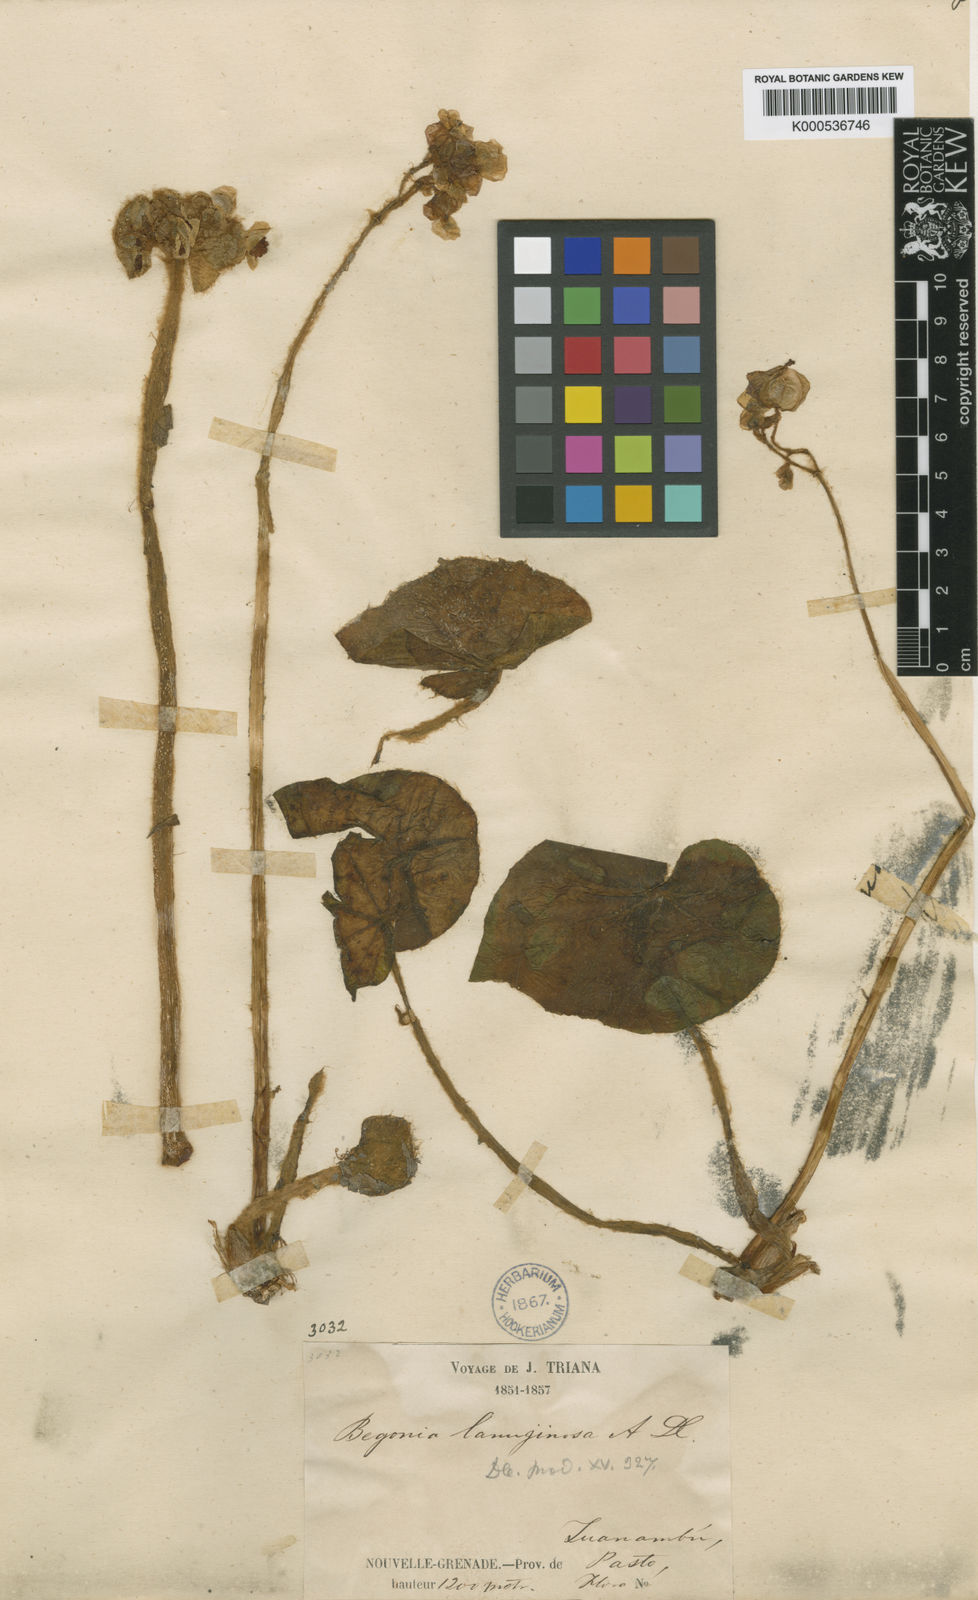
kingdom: Plantae
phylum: Tracheophyta
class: Magnoliopsida
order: Cucurbitales
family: Begoniaceae
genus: Begonia
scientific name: Begonia sericoneura
